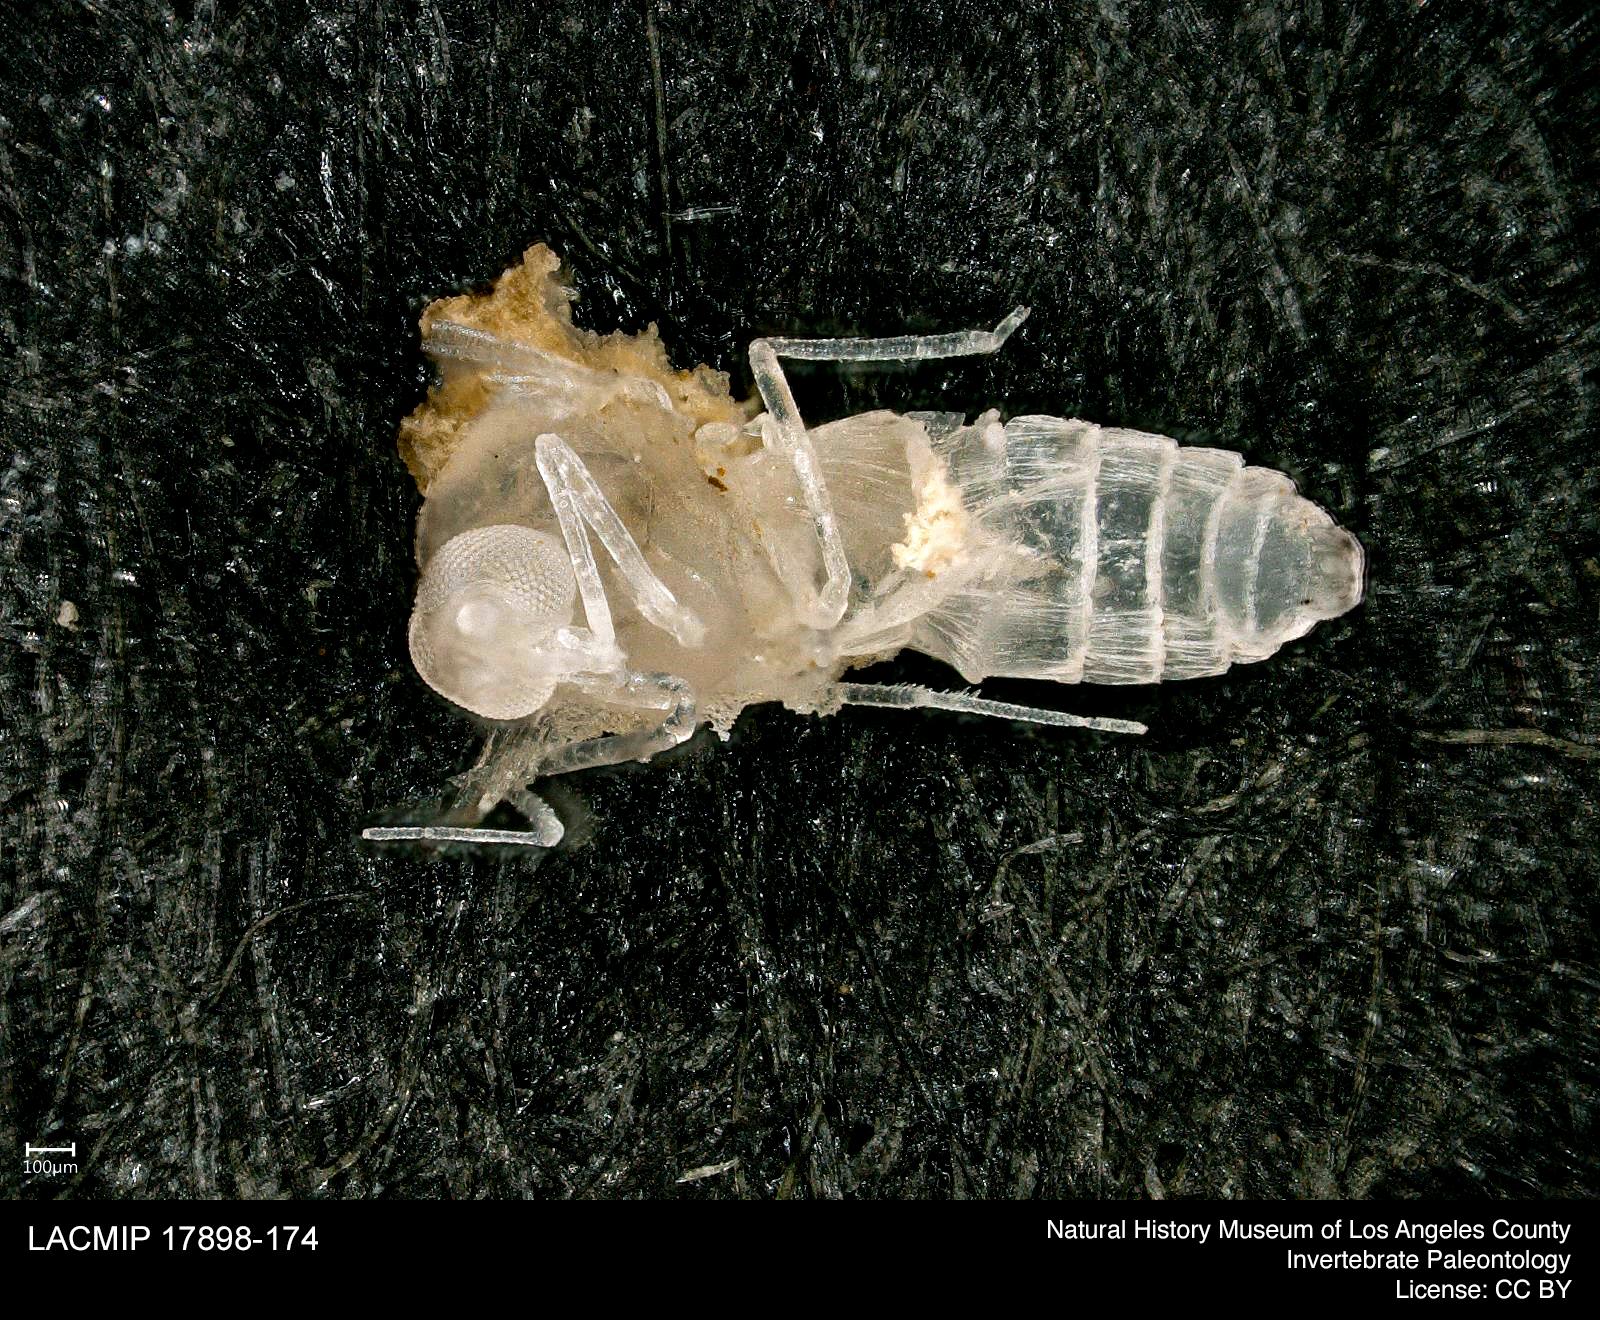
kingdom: Animalia
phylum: Arthropoda
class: Insecta
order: Diptera
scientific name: Diptera
